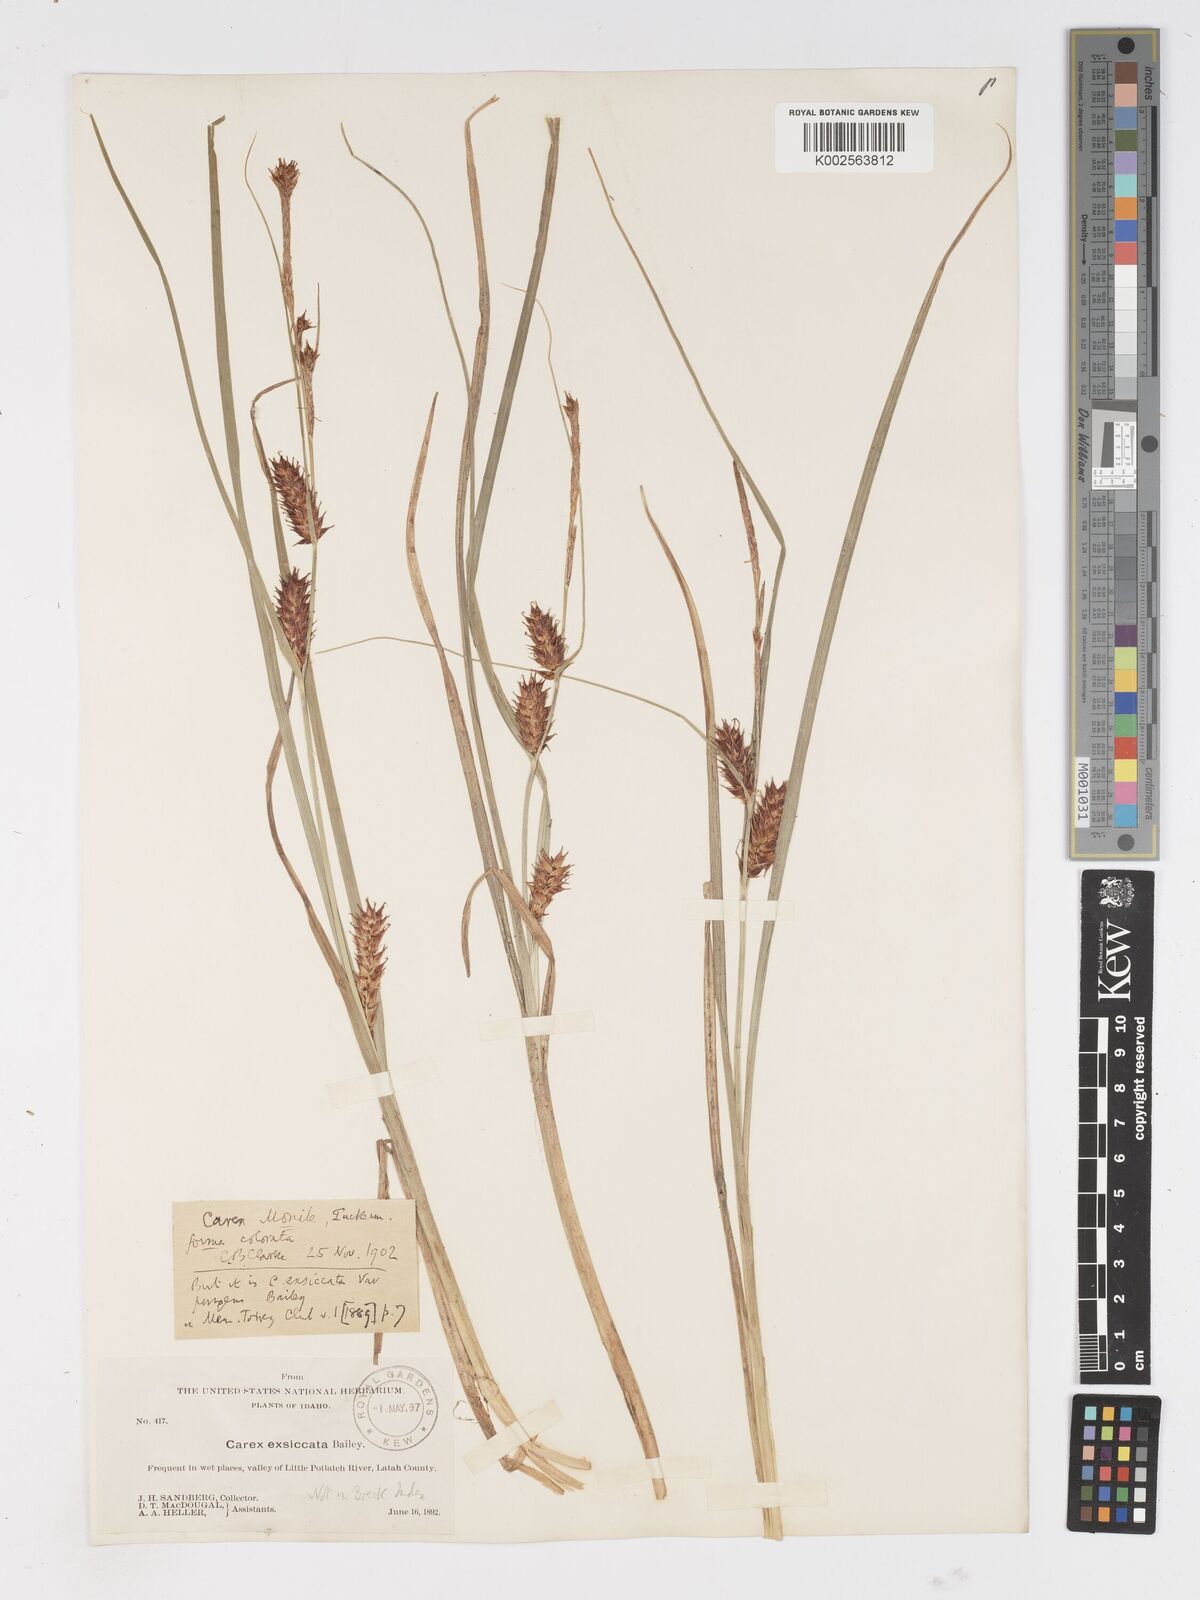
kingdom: Plantae
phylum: Tracheophyta
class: Liliopsida
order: Poales
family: Cyperaceae
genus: Carex
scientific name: Carex exsiccata
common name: Beaked sedge
